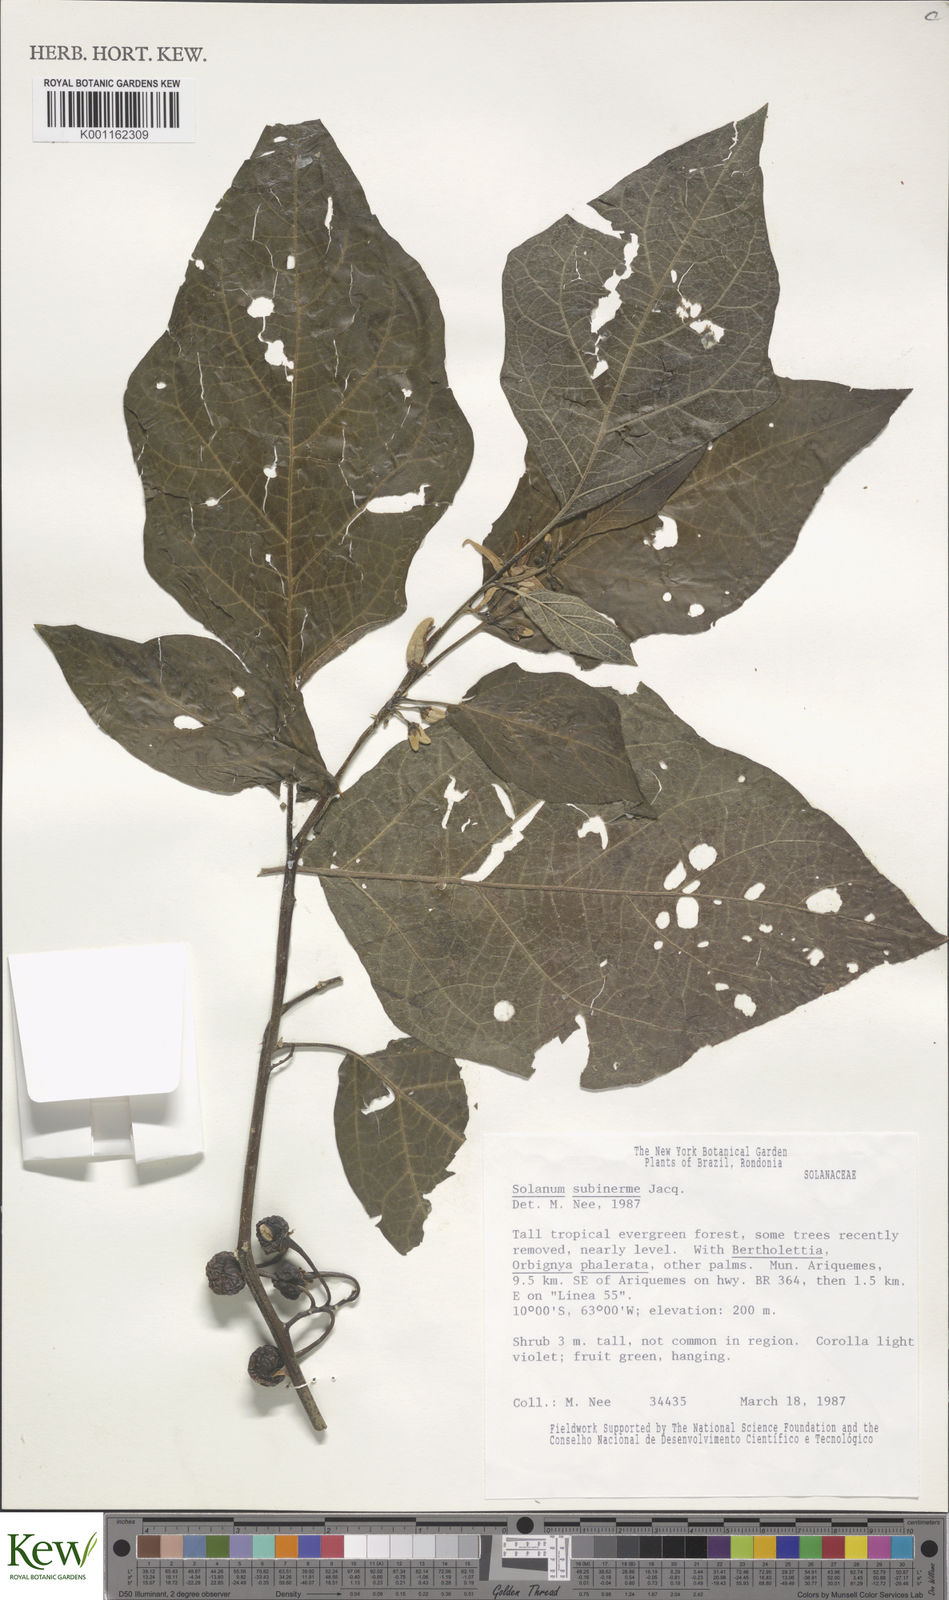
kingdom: Plantae
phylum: Tracheophyta
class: Magnoliopsida
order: Solanales
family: Solanaceae
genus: Solanum
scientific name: Solanum subinerme
